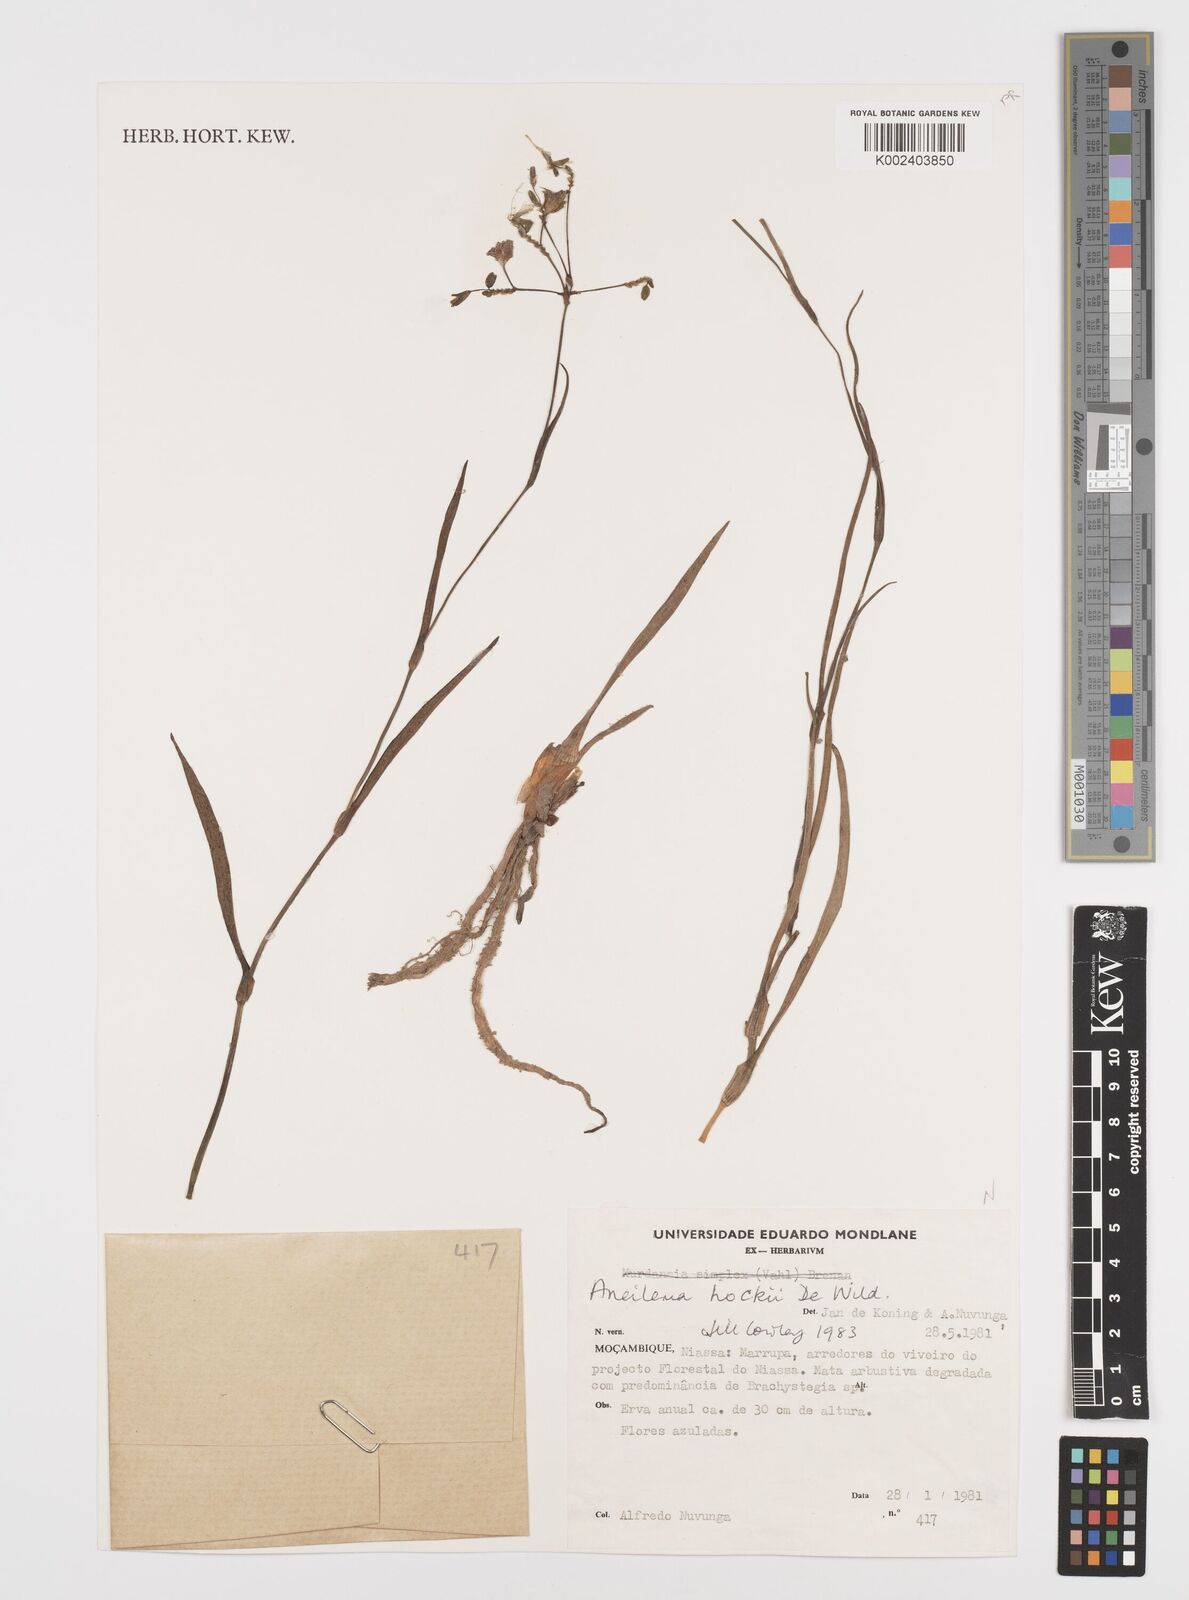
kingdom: Plantae
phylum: Tracheophyta
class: Liliopsida
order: Commelinales
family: Commelinaceae
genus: Aneilema
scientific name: Aneilema hockii
